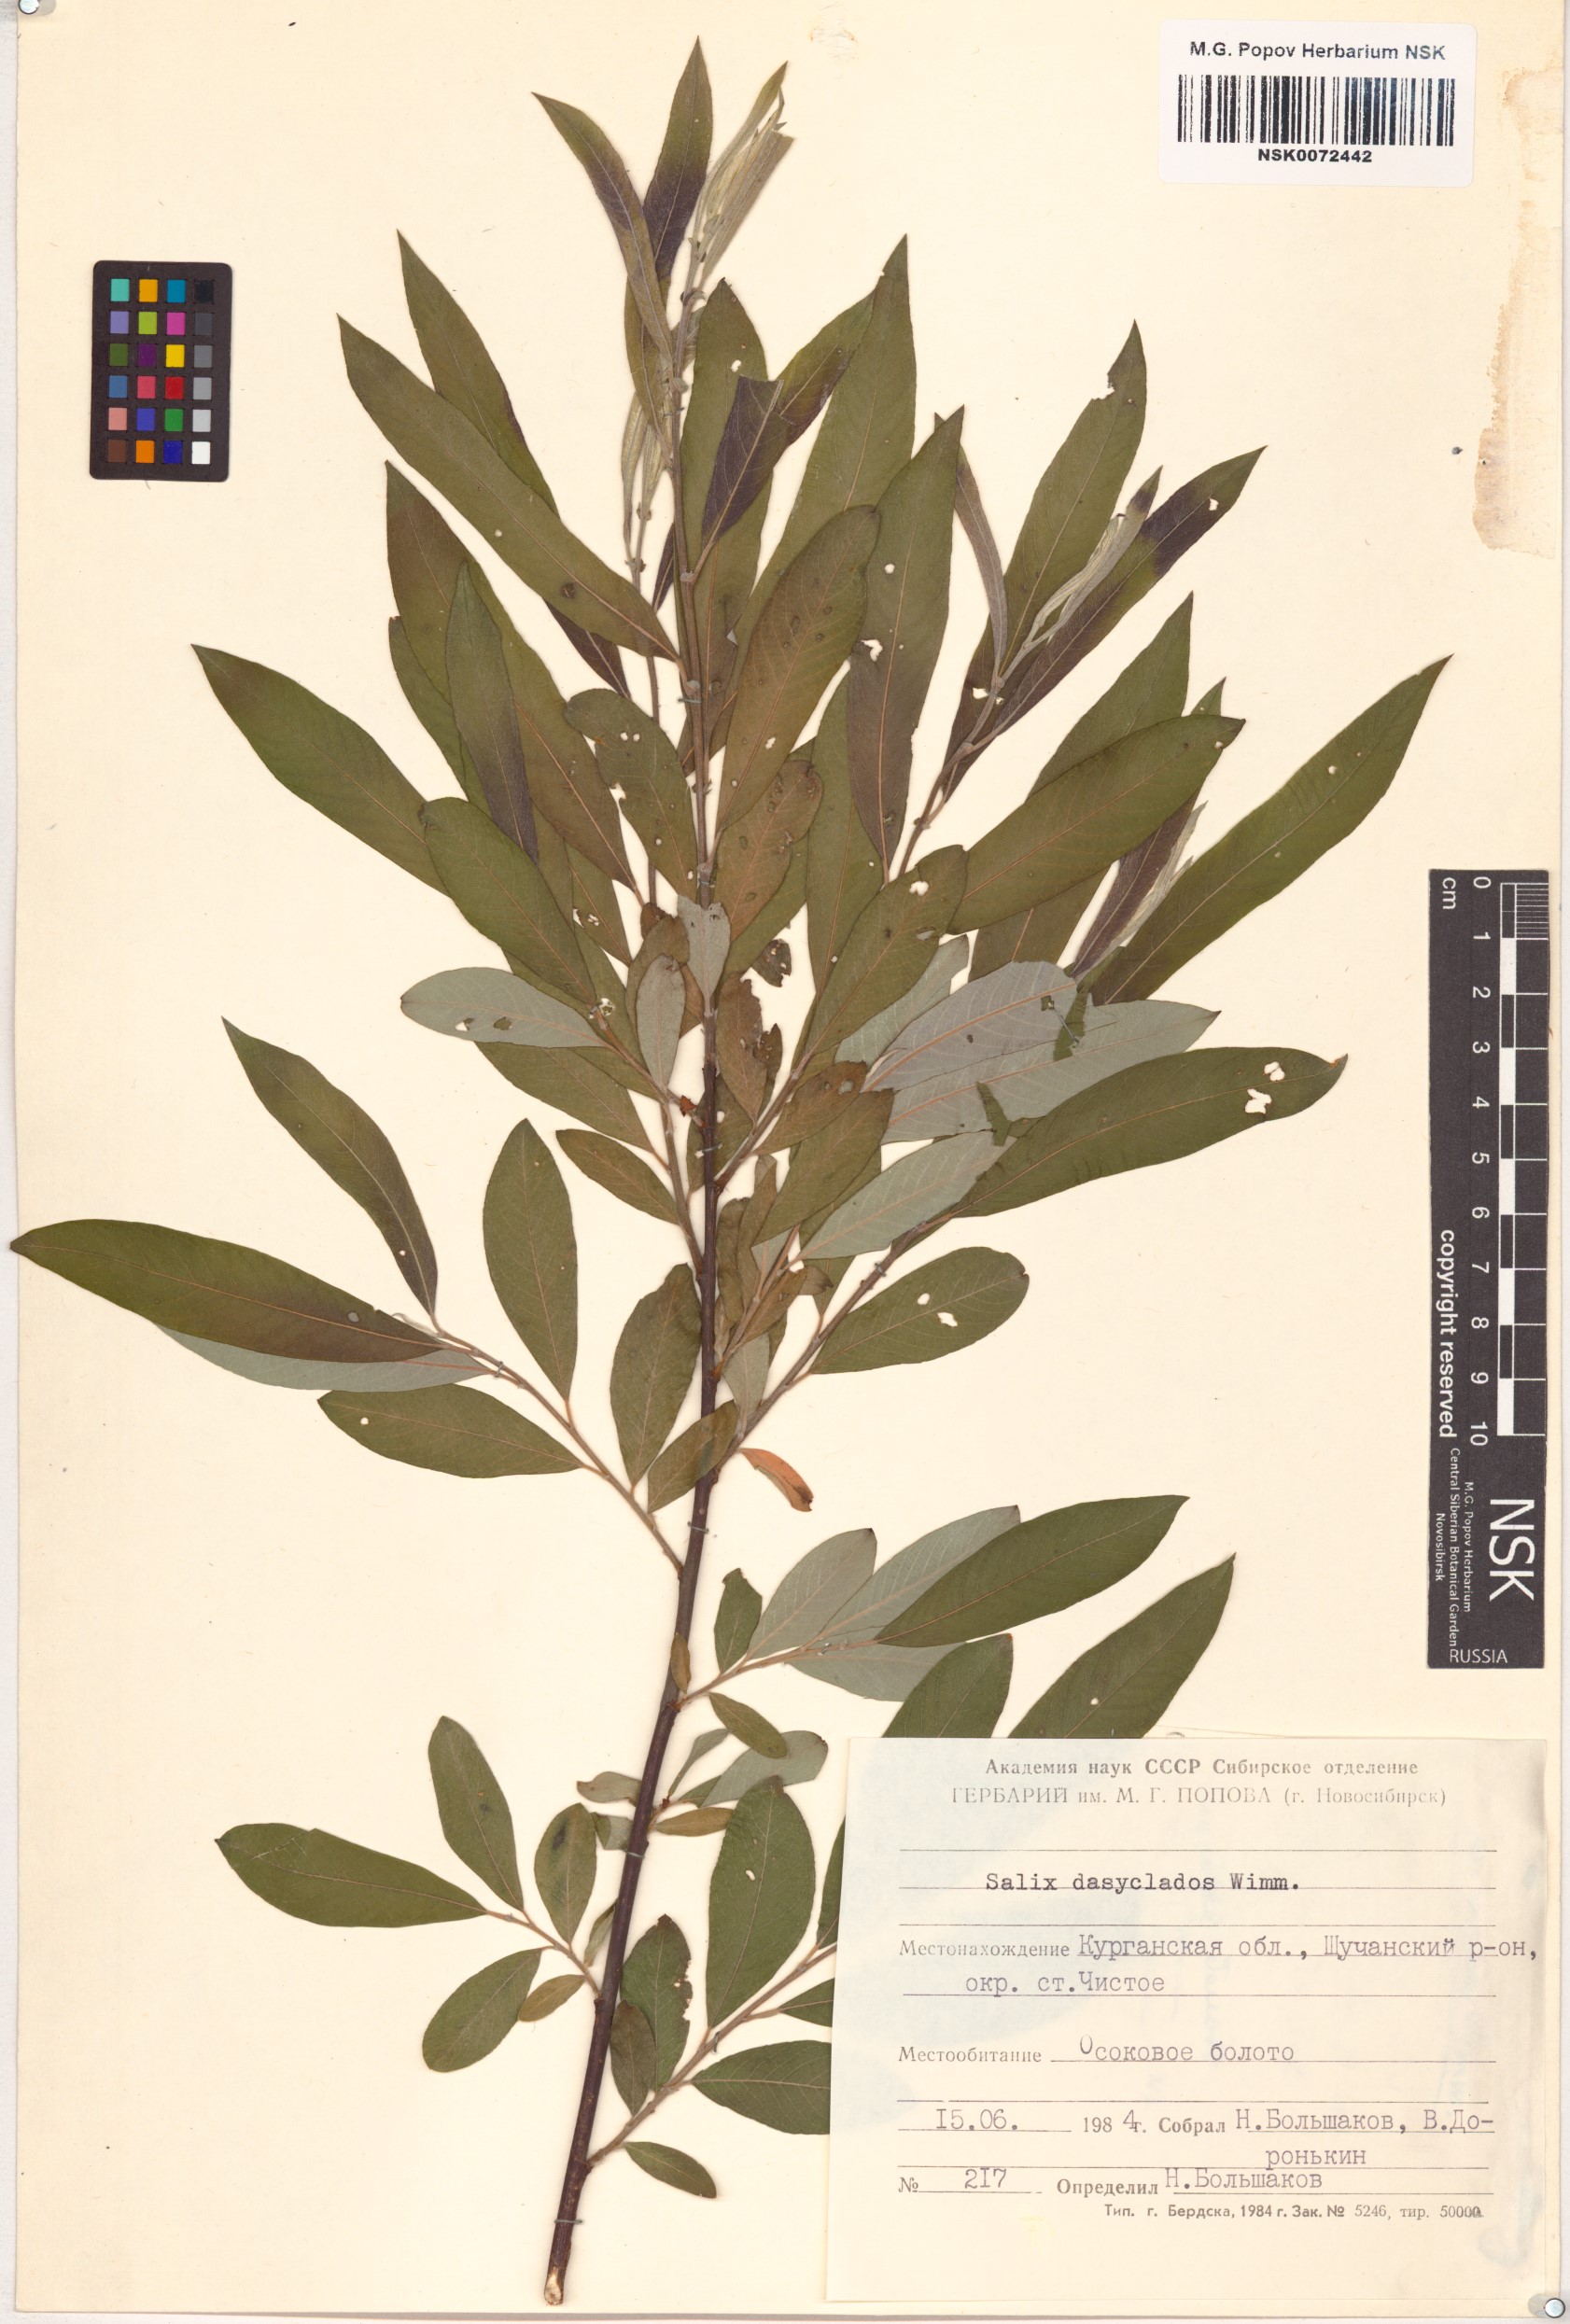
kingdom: Plantae
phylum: Tracheophyta
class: Magnoliopsida
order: Malpighiales
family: Salicaceae
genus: Salix
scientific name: Salix gmelinii
